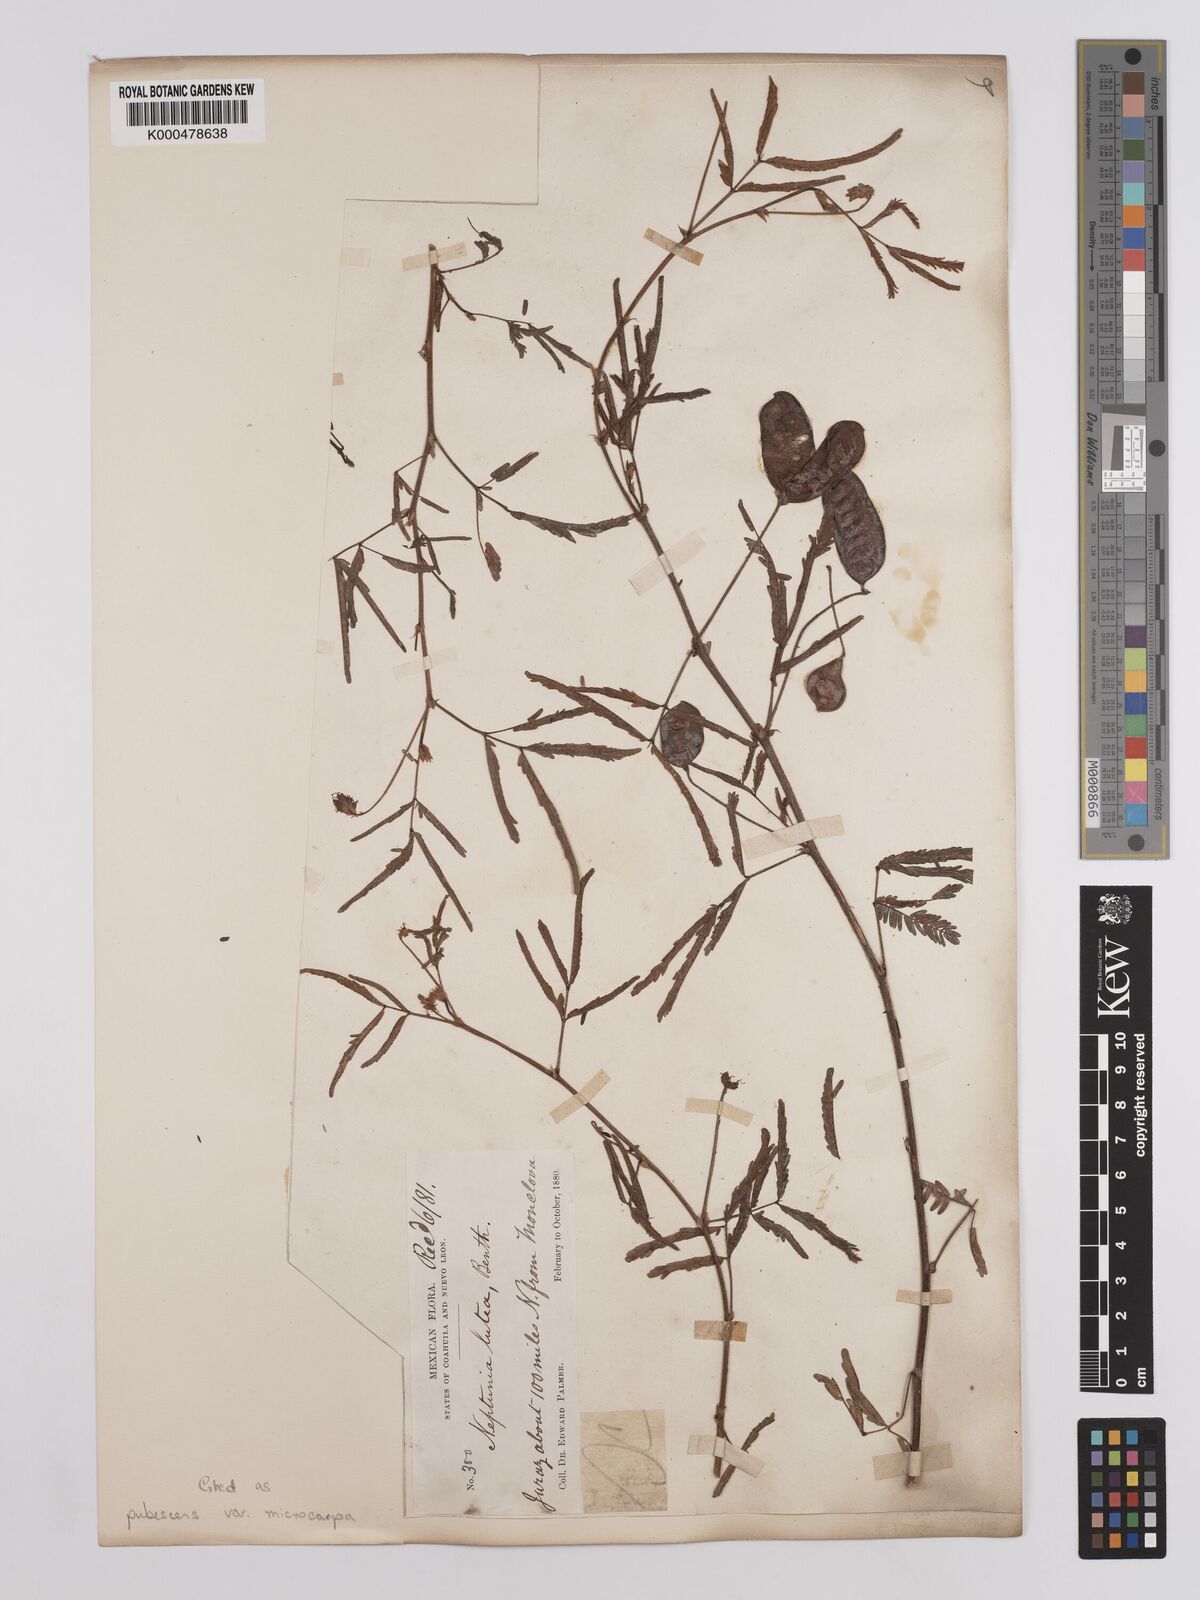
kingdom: Plantae
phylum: Tracheophyta
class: Magnoliopsida
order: Fabales
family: Fabaceae
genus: Neptunia
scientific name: Neptunia pubescens
